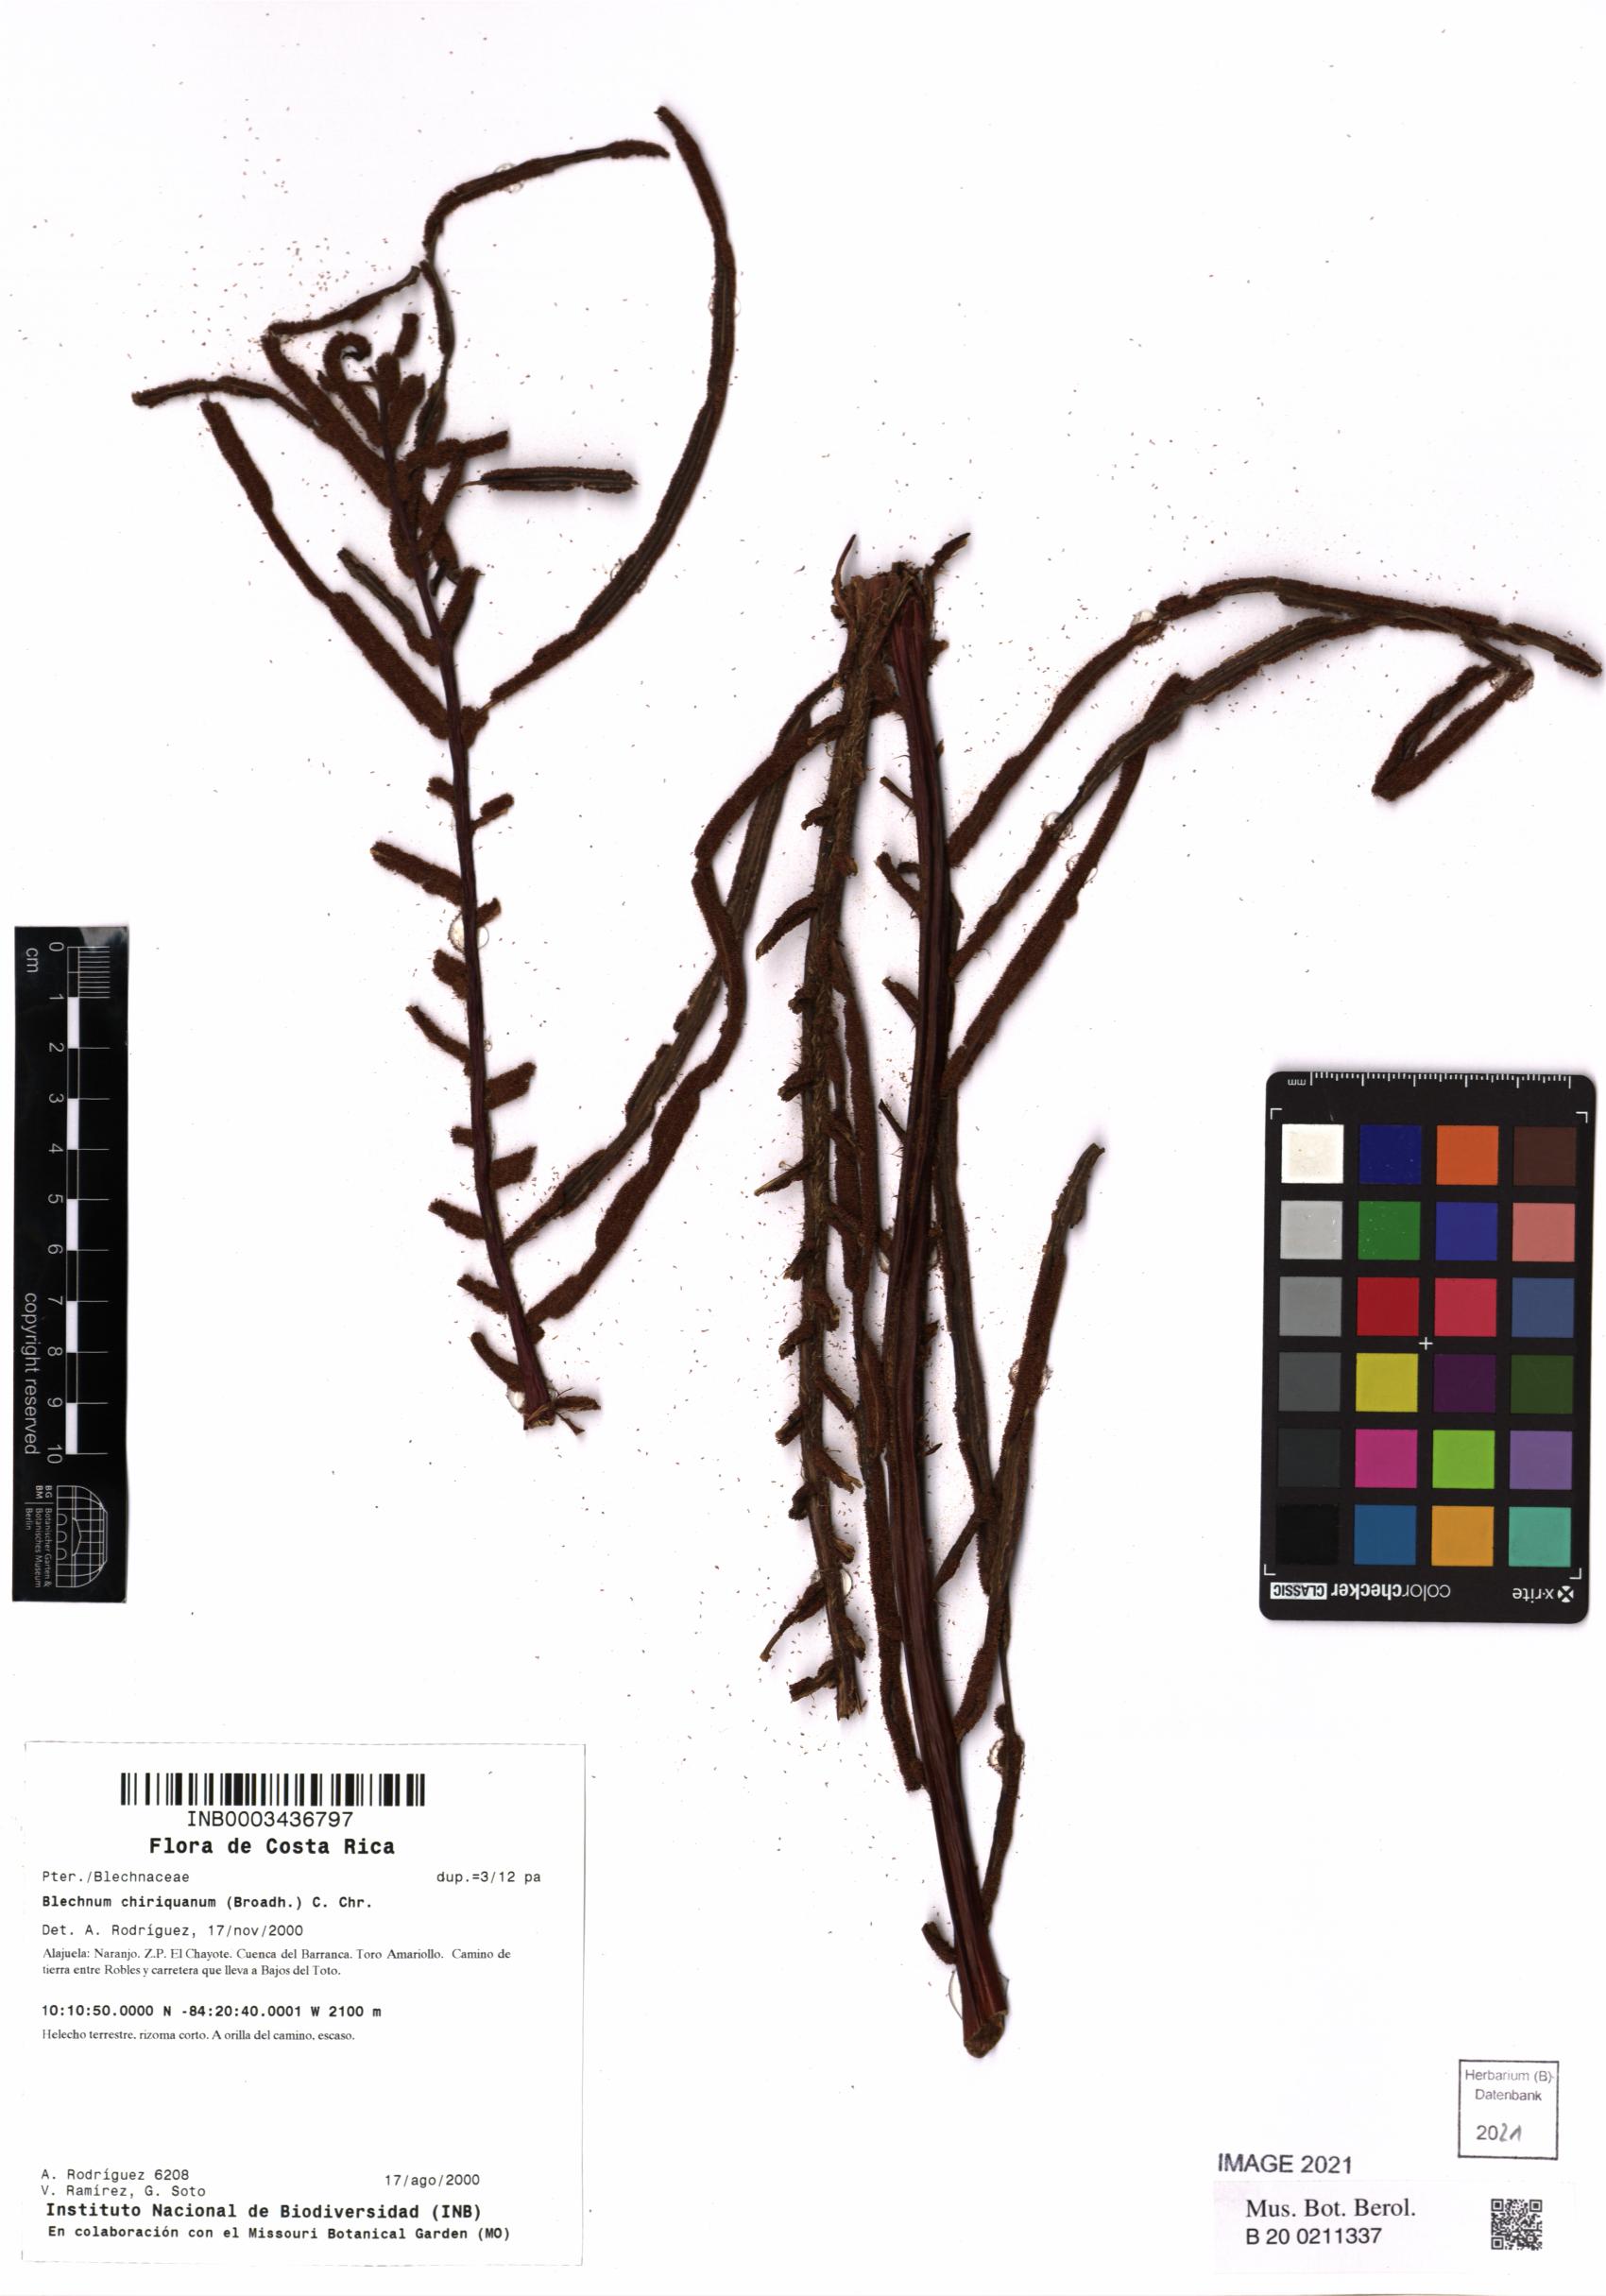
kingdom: Plantae
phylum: Tracheophyta
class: Polypodiopsida
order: Polypodiales
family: Blechnaceae
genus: Parablechnum
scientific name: Parablechnum chiriquanum
